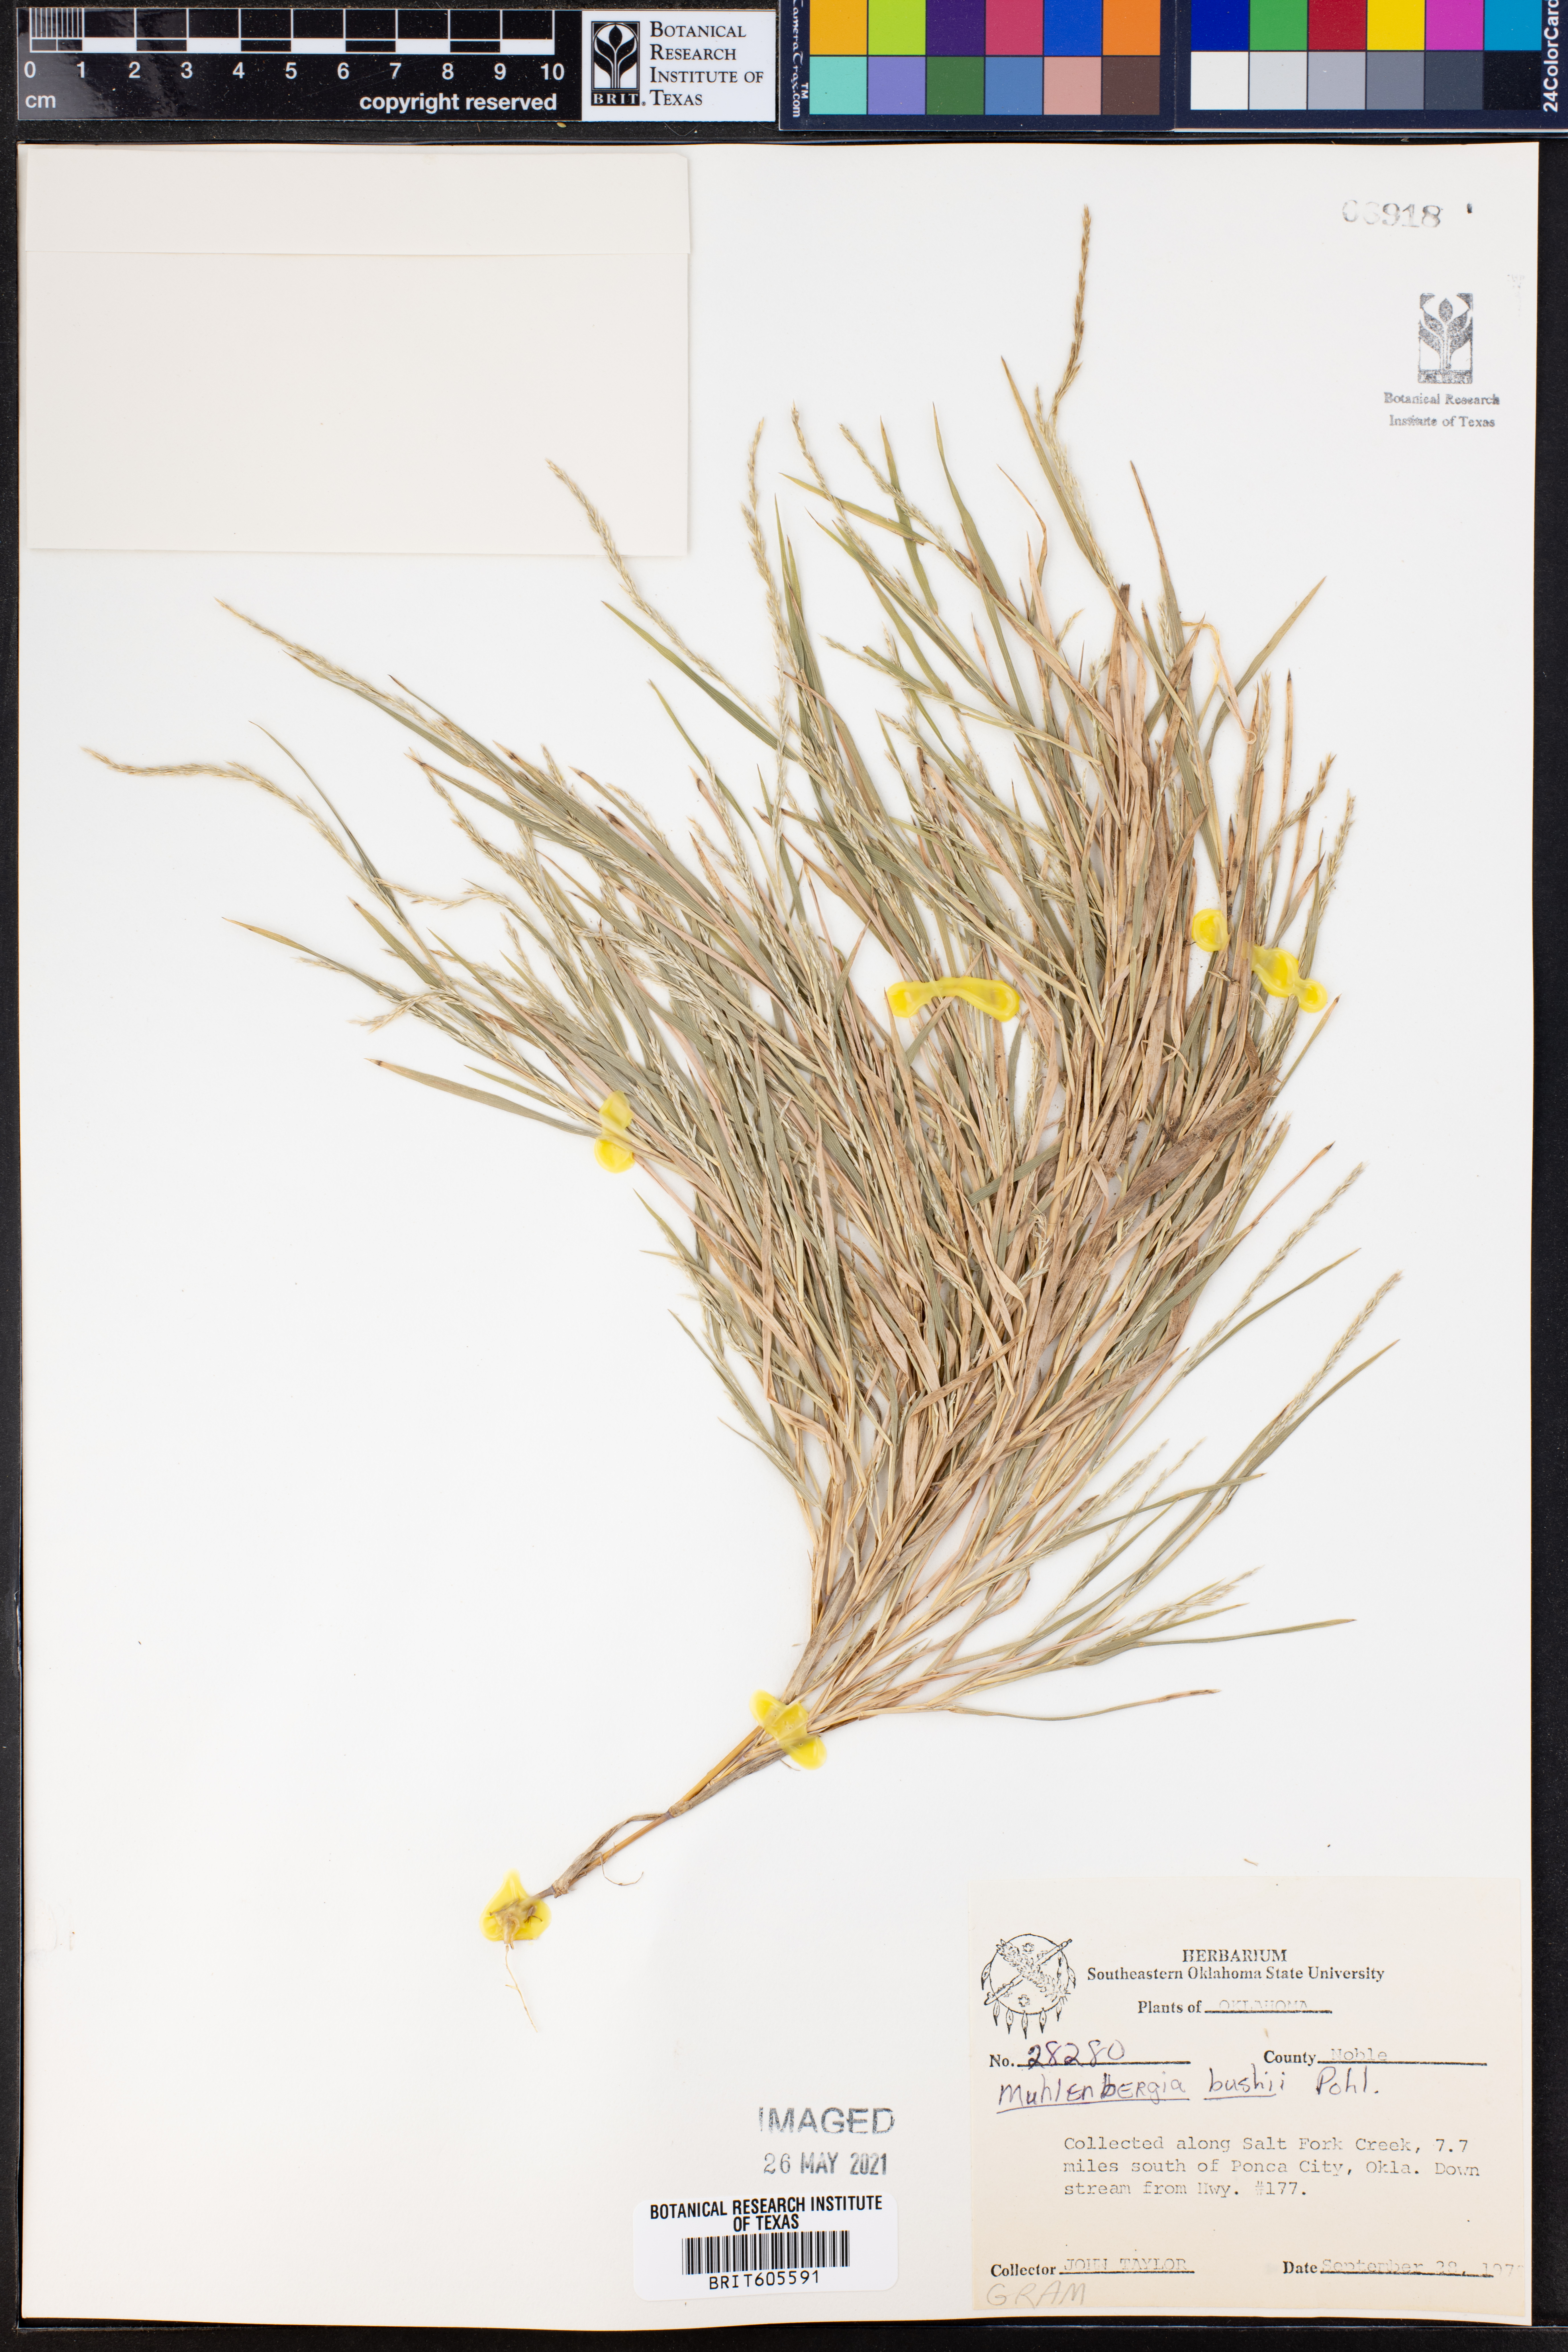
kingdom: Plantae
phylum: Tracheophyta
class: Liliopsida
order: Poales
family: Poaceae
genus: Muhlenbergia
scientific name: Muhlenbergia bushii
